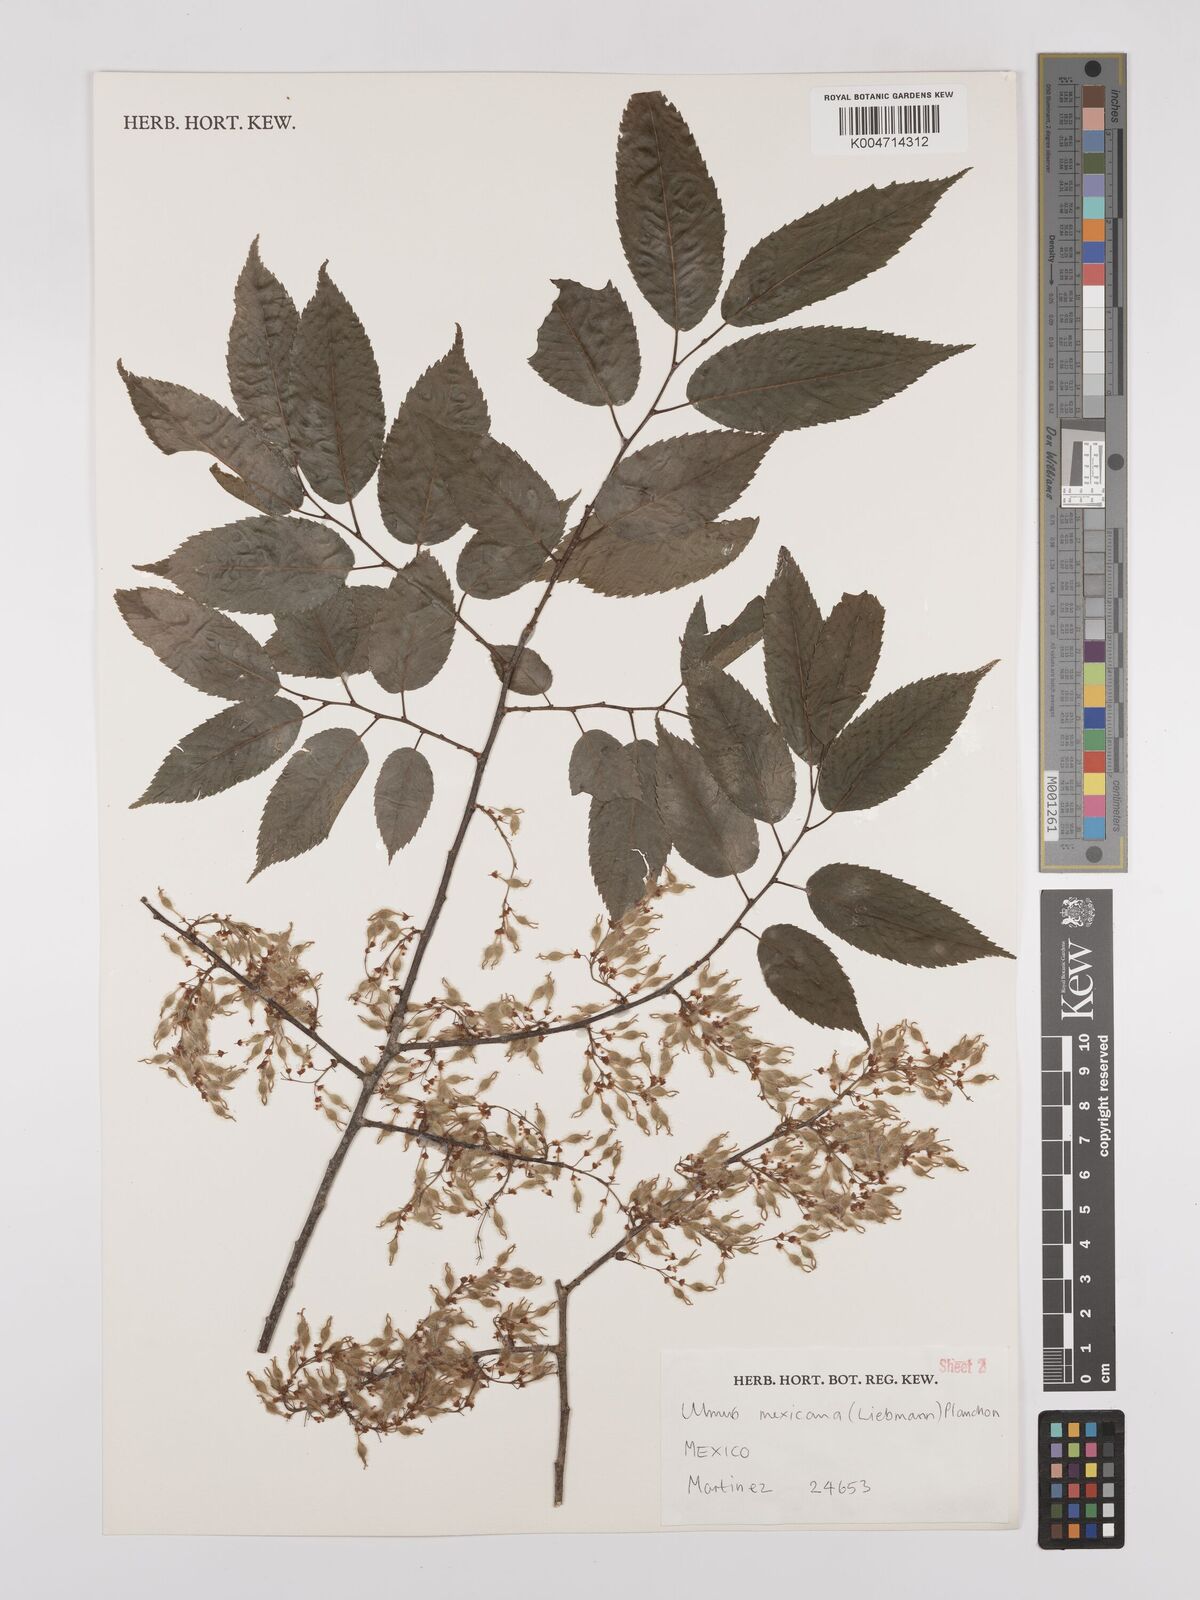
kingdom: Plantae
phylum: Tracheophyta
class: Magnoliopsida
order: Rosales
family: Ulmaceae
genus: Ulmus
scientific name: Ulmus mexicana
